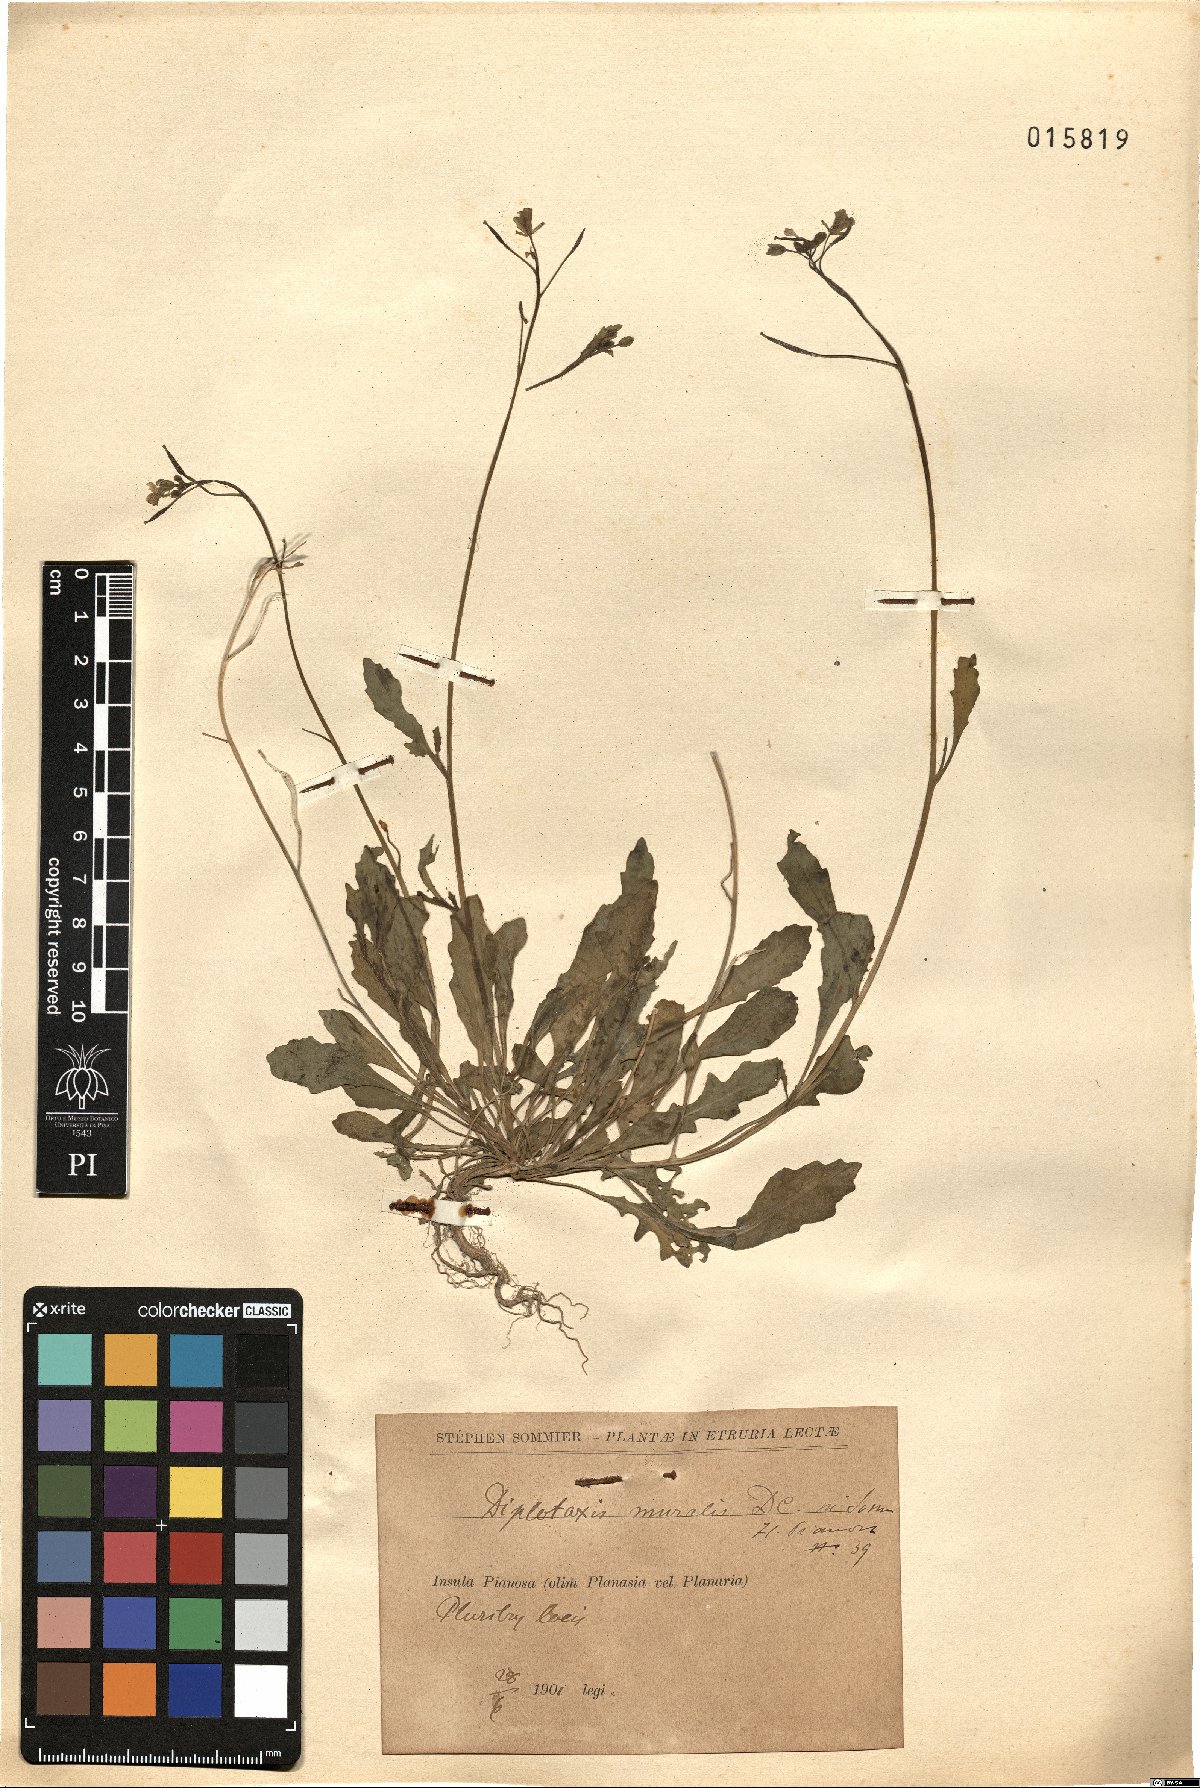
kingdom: Plantae
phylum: Tracheophyta
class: Magnoliopsida
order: Brassicales
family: Brassicaceae
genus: Diplotaxis
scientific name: Diplotaxis muralis
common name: Annual wall-rocket
